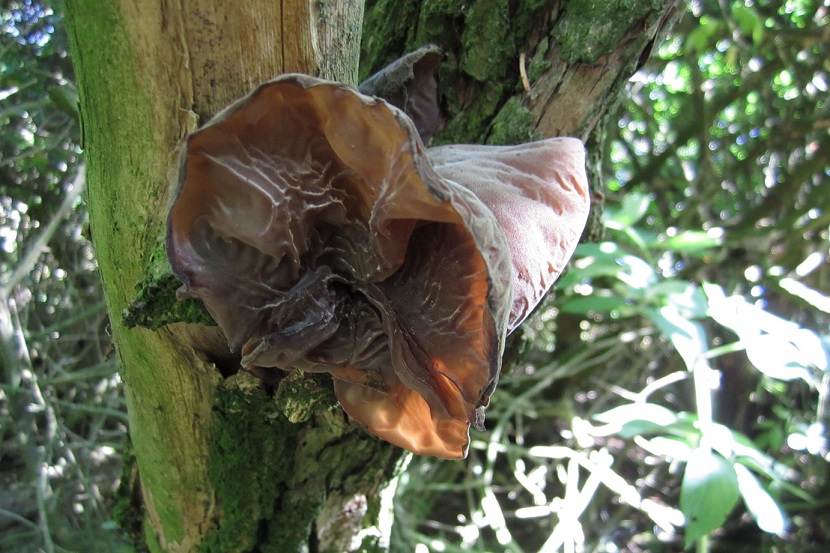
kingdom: Fungi
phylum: Basidiomycota
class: Agaricomycetes
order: Auriculariales
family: Auriculariaceae
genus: Auricularia
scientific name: Auricularia auricula-judae
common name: almindelig judasøre
